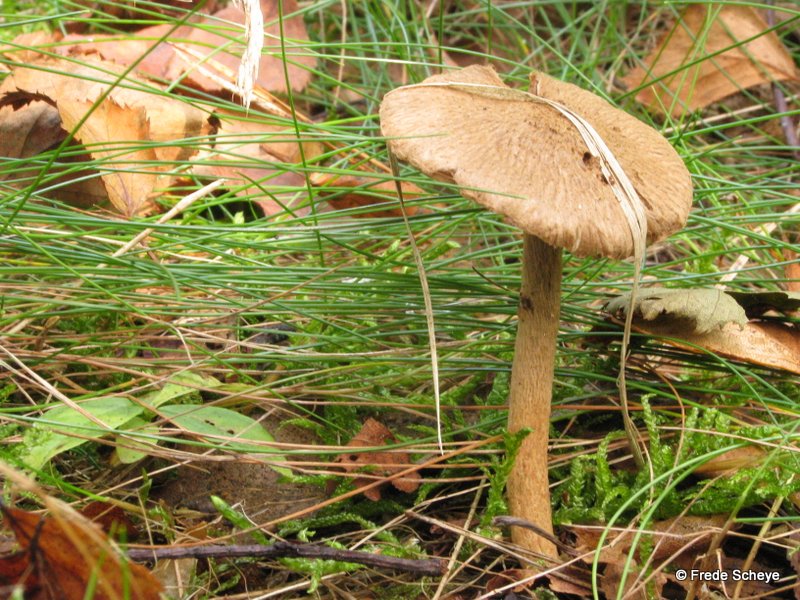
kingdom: Fungi
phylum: Basidiomycota
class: Agaricomycetes
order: Agaricales
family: Inocybaceae
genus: Inocybe
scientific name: Inocybe lanuginosa
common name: uldskællet trævlhat
